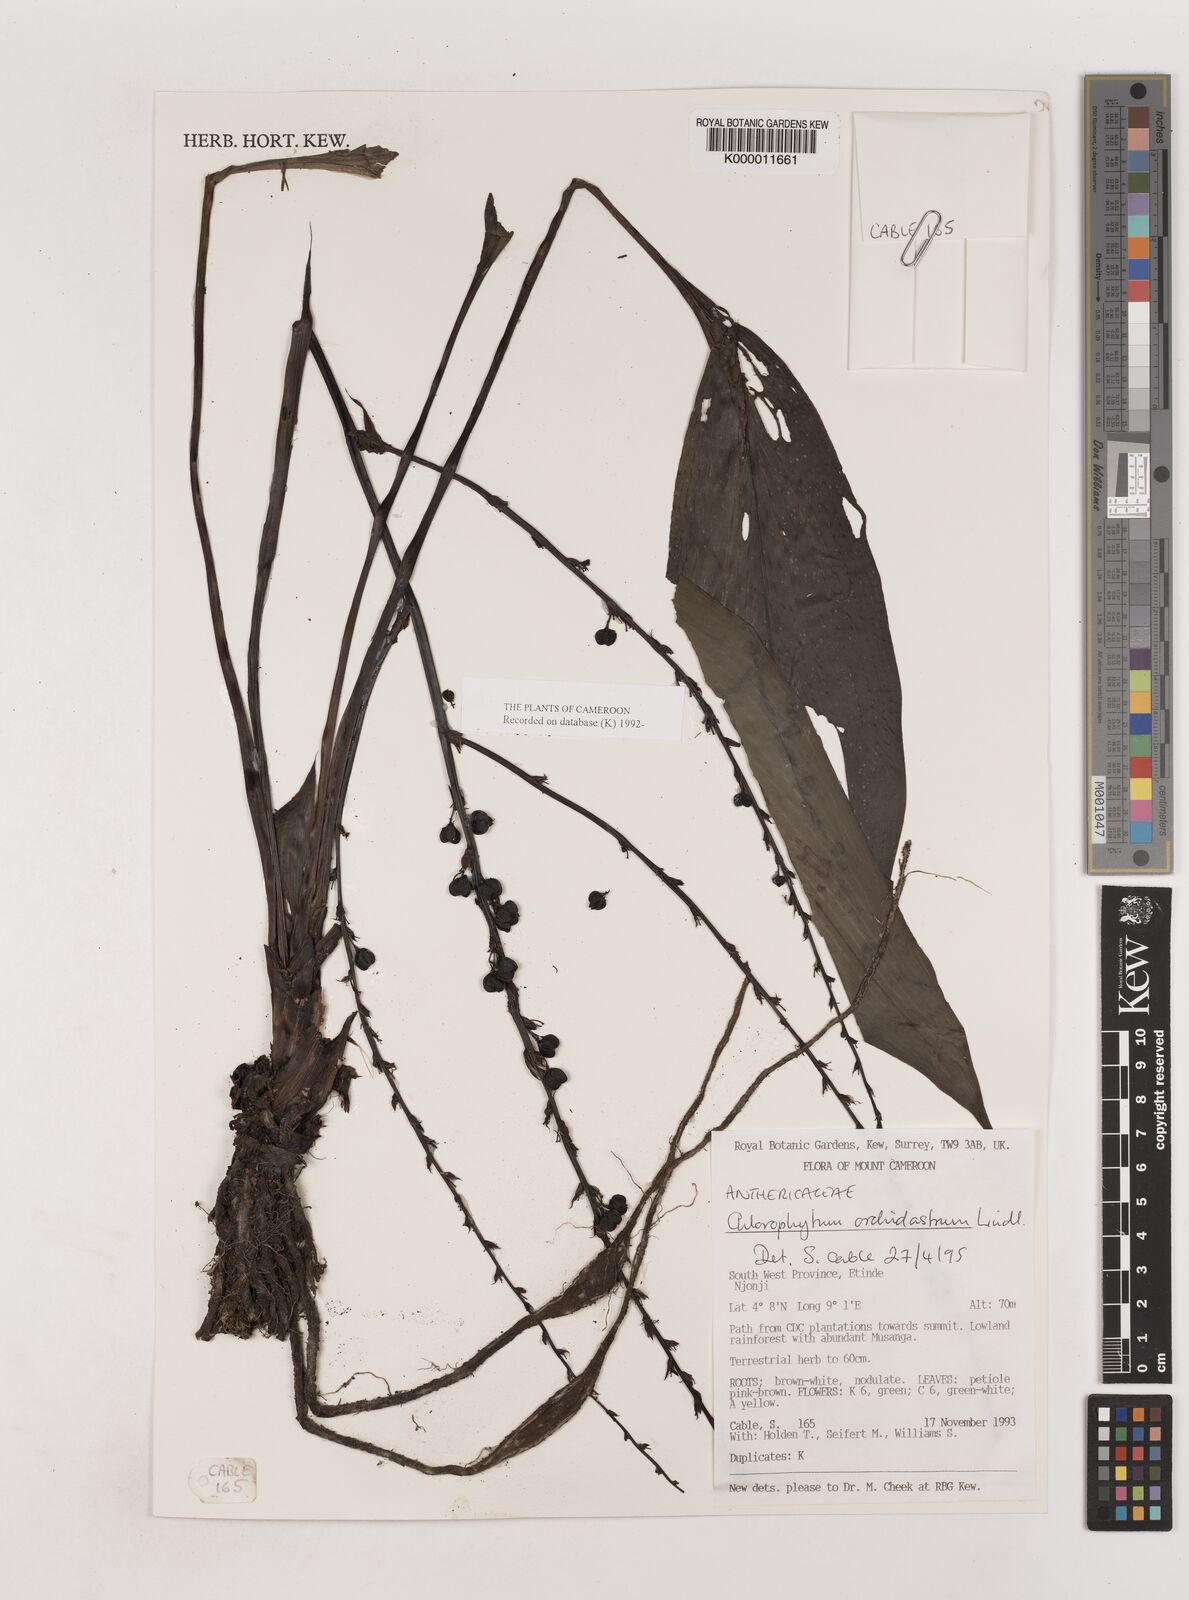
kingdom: Plantae
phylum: Tracheophyta
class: Liliopsida
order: Asparagales
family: Asparagaceae
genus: Chlorophytum
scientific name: Chlorophytum orchidastrum
